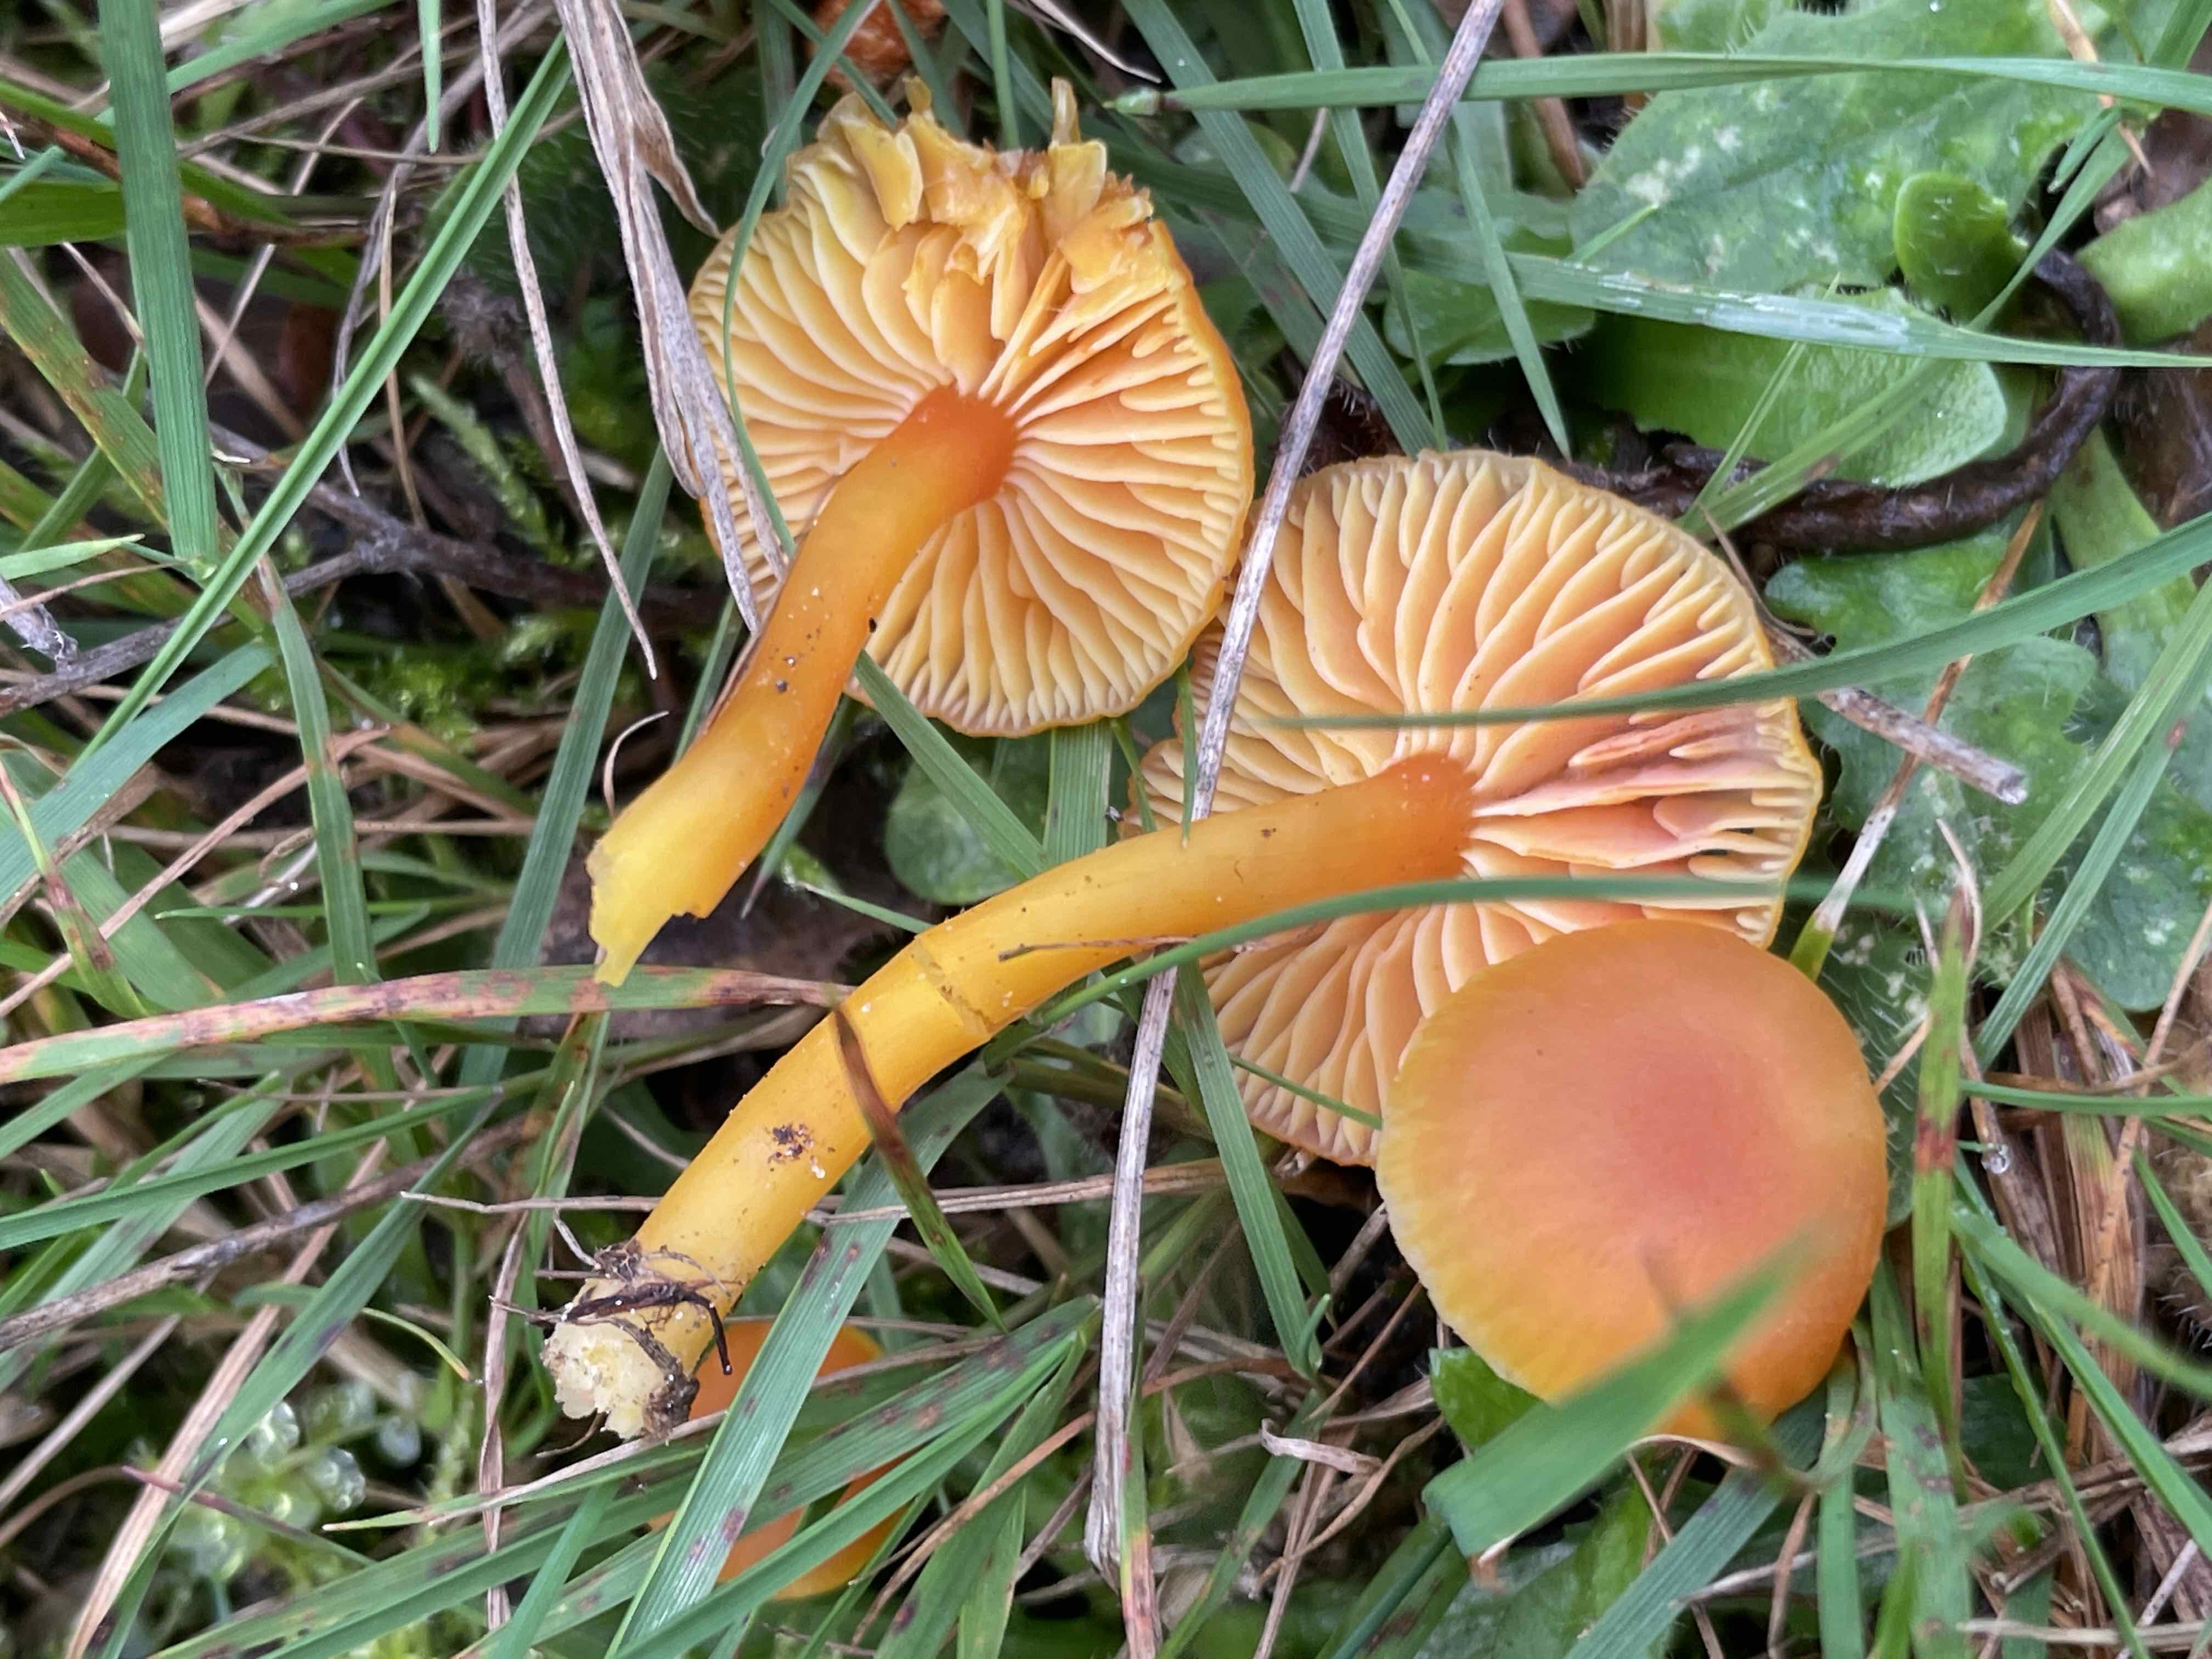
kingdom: Fungi
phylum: Basidiomycota
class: Agaricomycetes
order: Agaricales
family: Hygrophoraceae
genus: Hygrocybe
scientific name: Hygrocybe miniata
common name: mønje-vokshat
